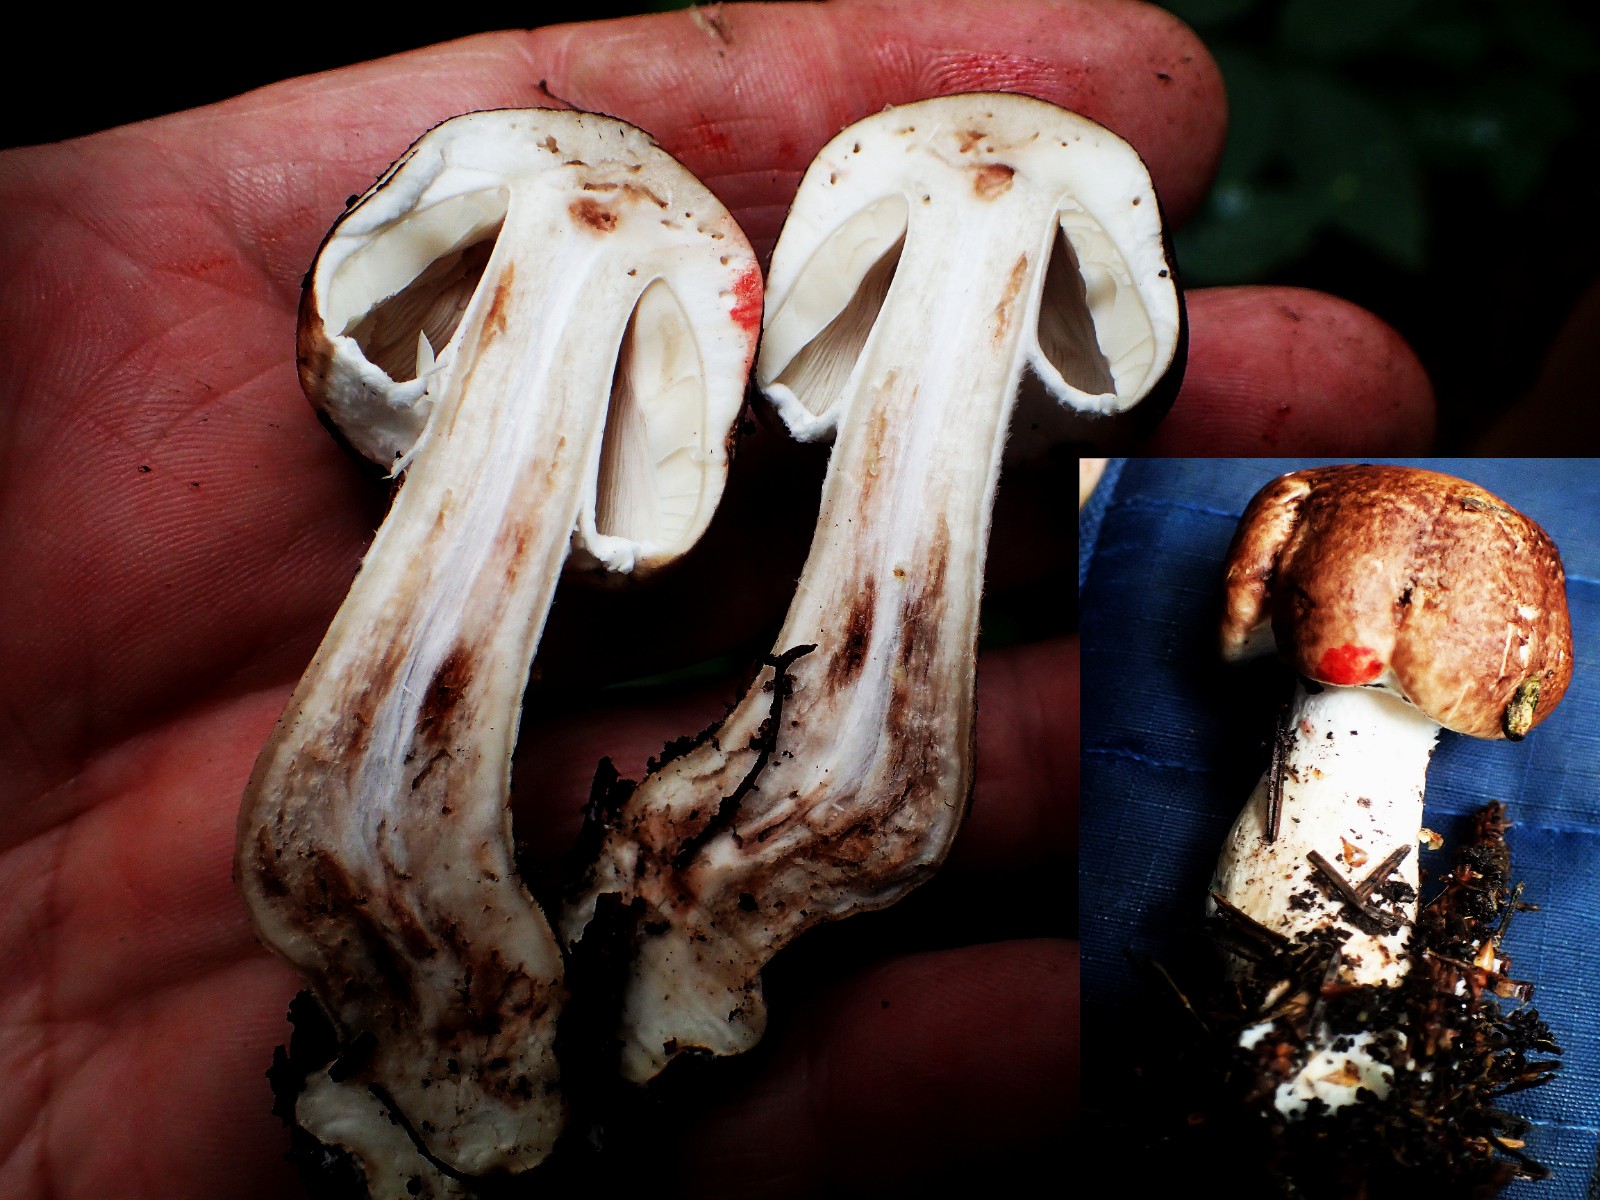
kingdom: Fungi
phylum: Basidiomycota
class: Agaricomycetes
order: Agaricales
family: Agaricaceae
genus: Agaricus
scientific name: Agaricus
